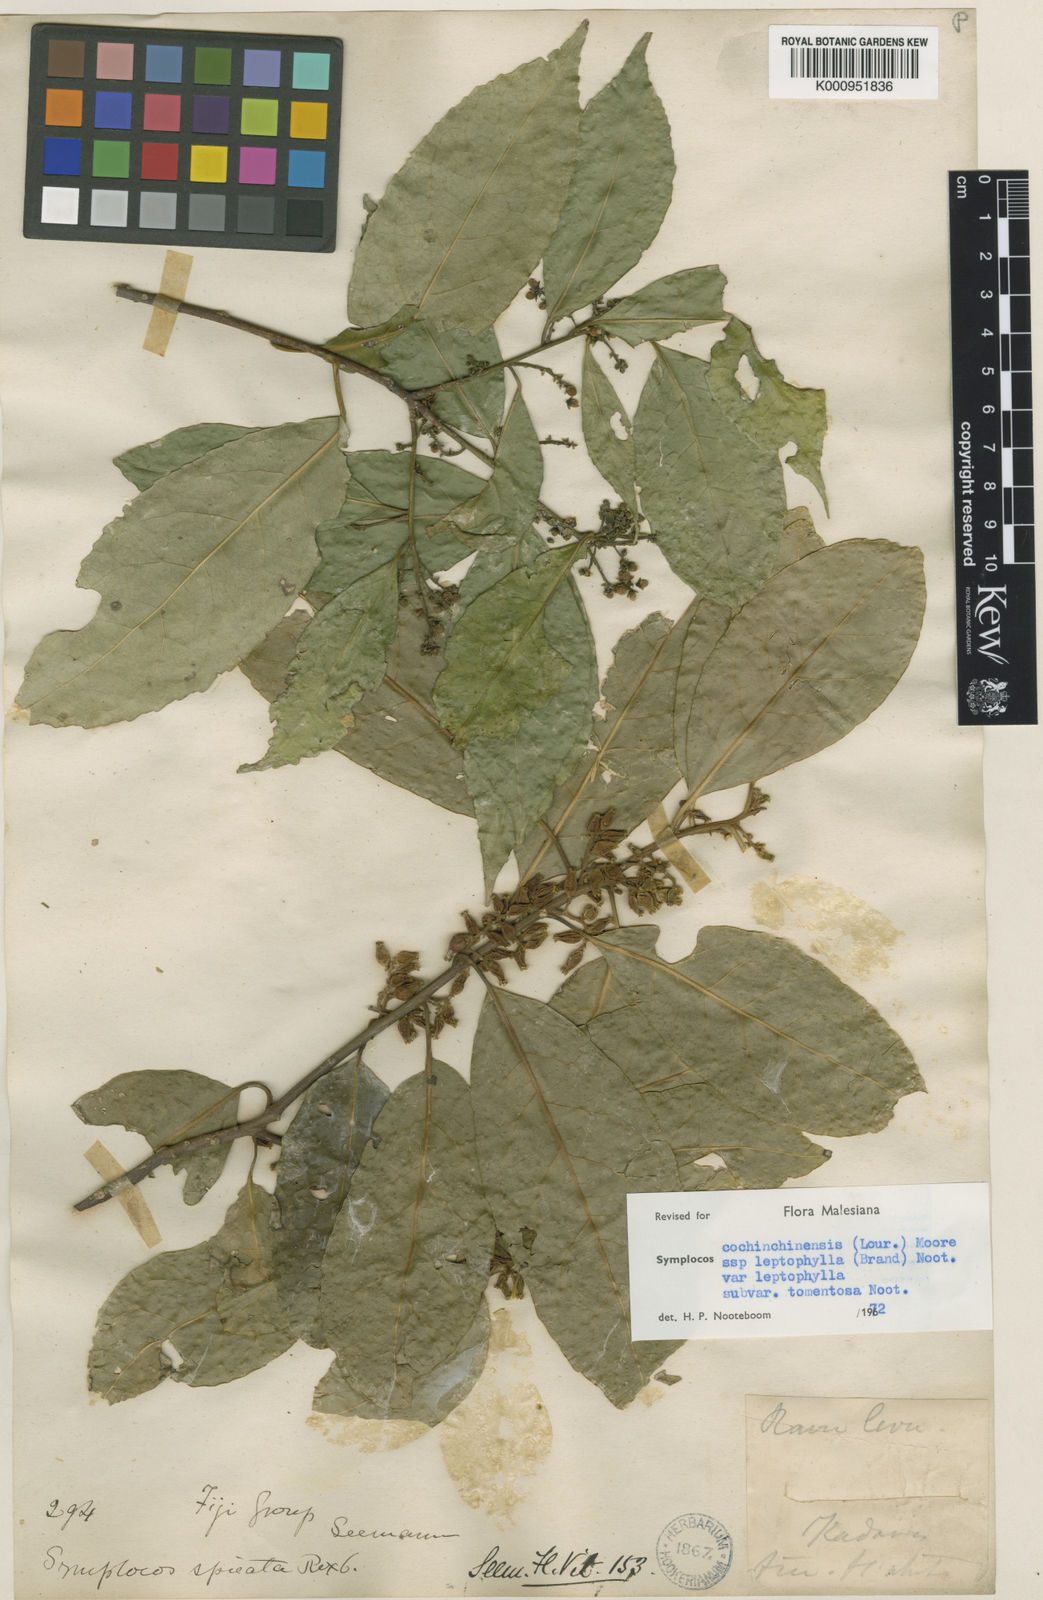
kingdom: Plantae
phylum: Tracheophyta
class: Magnoliopsida
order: Ericales
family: Symplocaceae
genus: Symplocos
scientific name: Symplocos leptophylla
